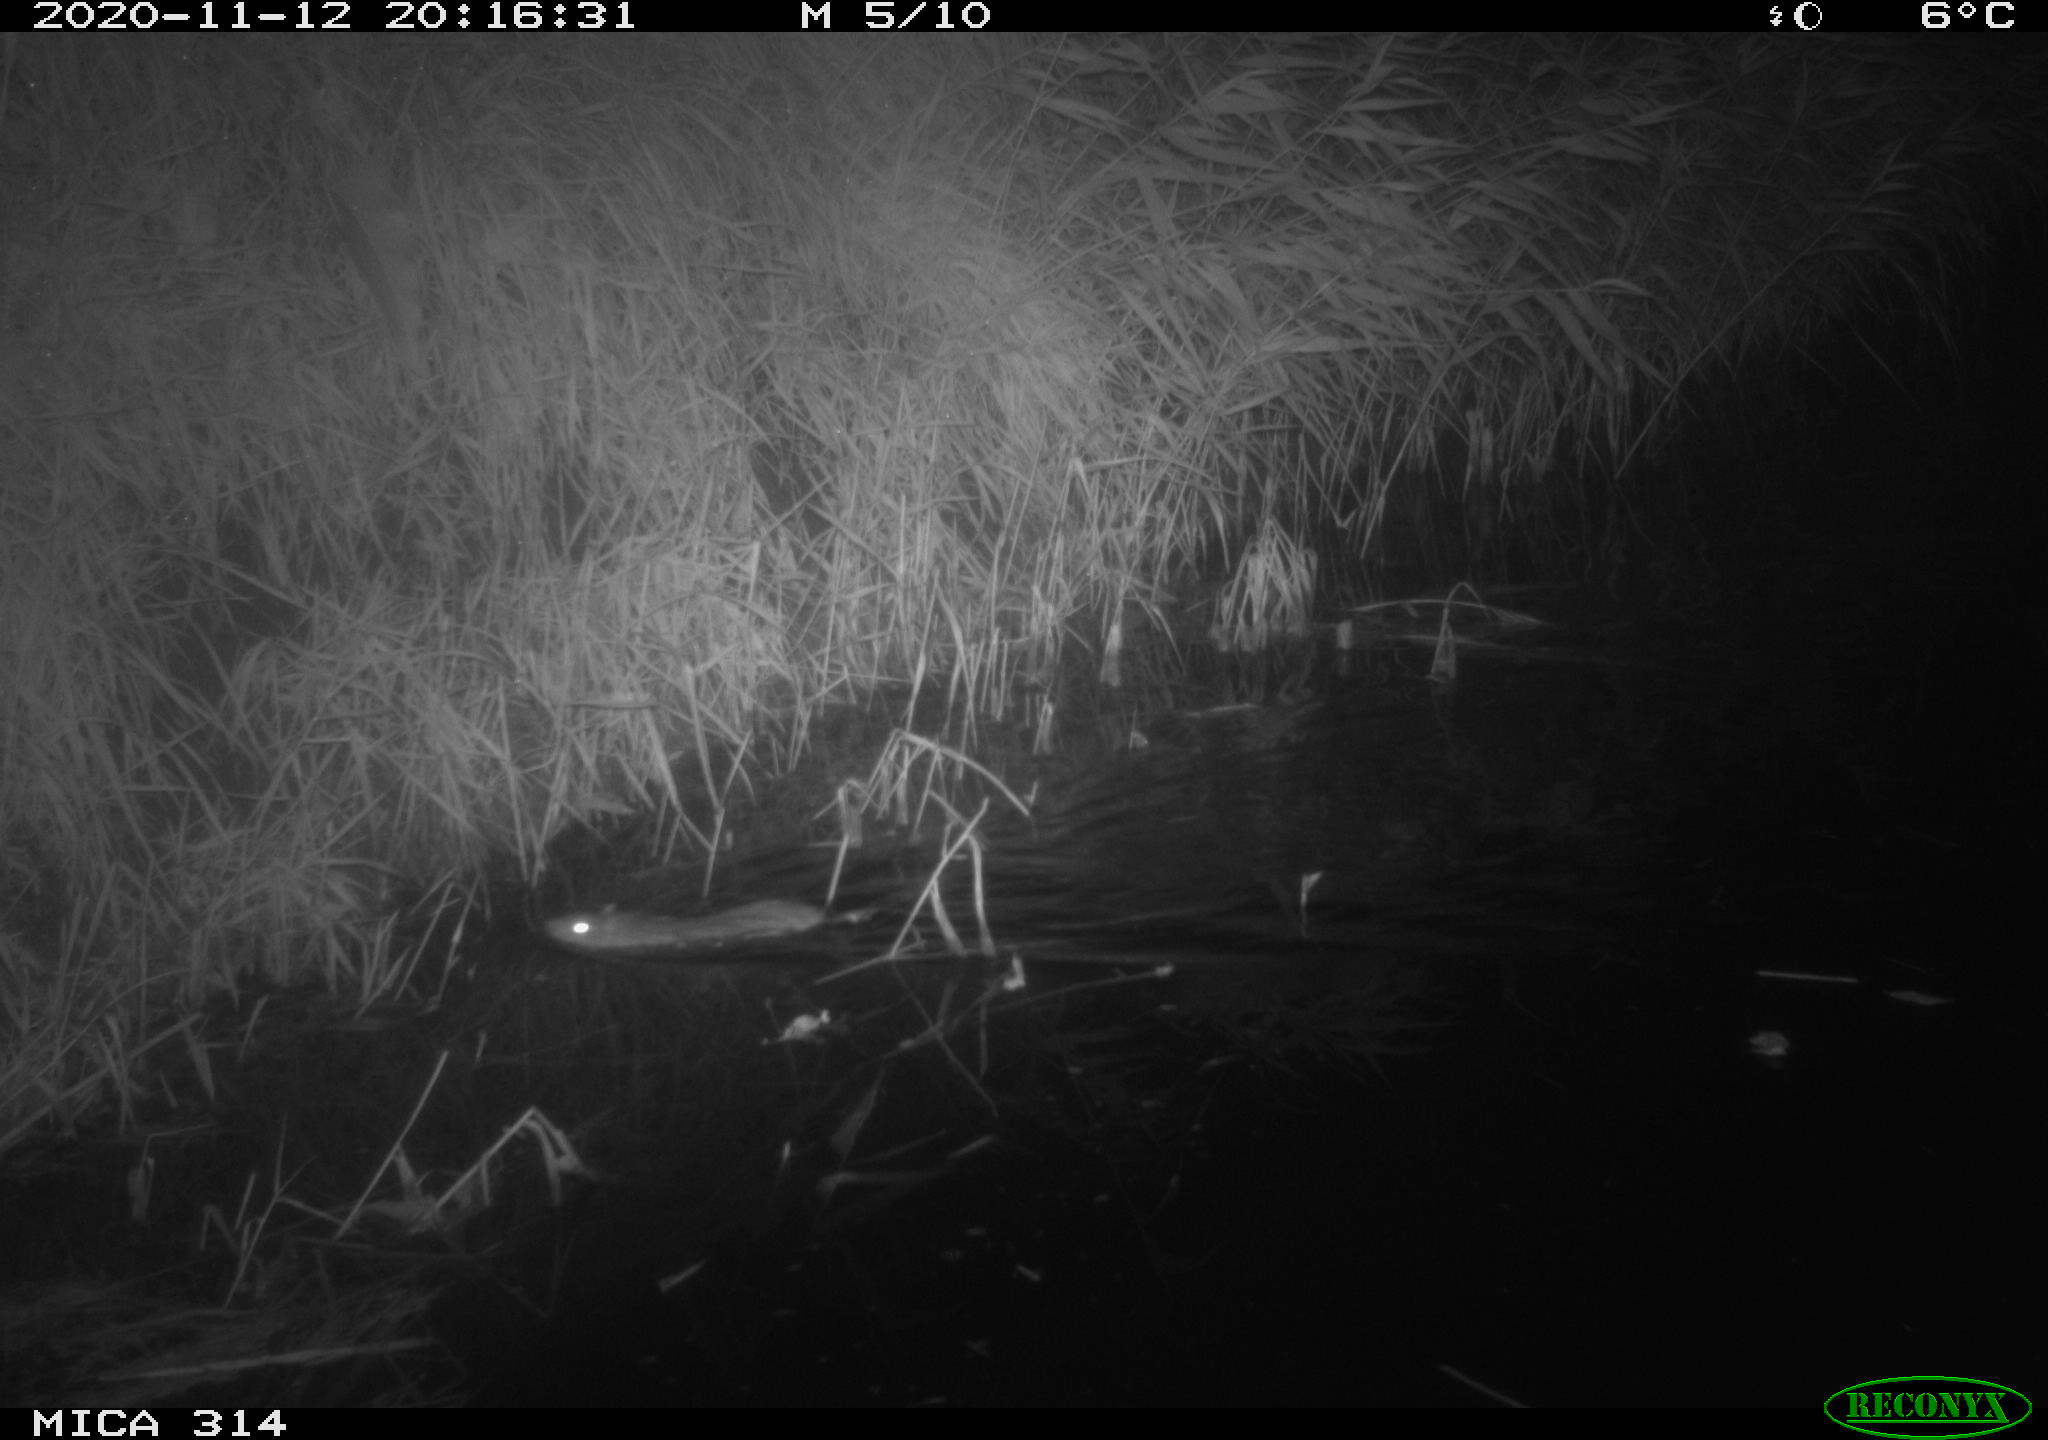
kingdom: Animalia
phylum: Chordata
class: Mammalia
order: Rodentia
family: Muridae
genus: Rattus
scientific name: Rattus norvegicus
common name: Brown rat
